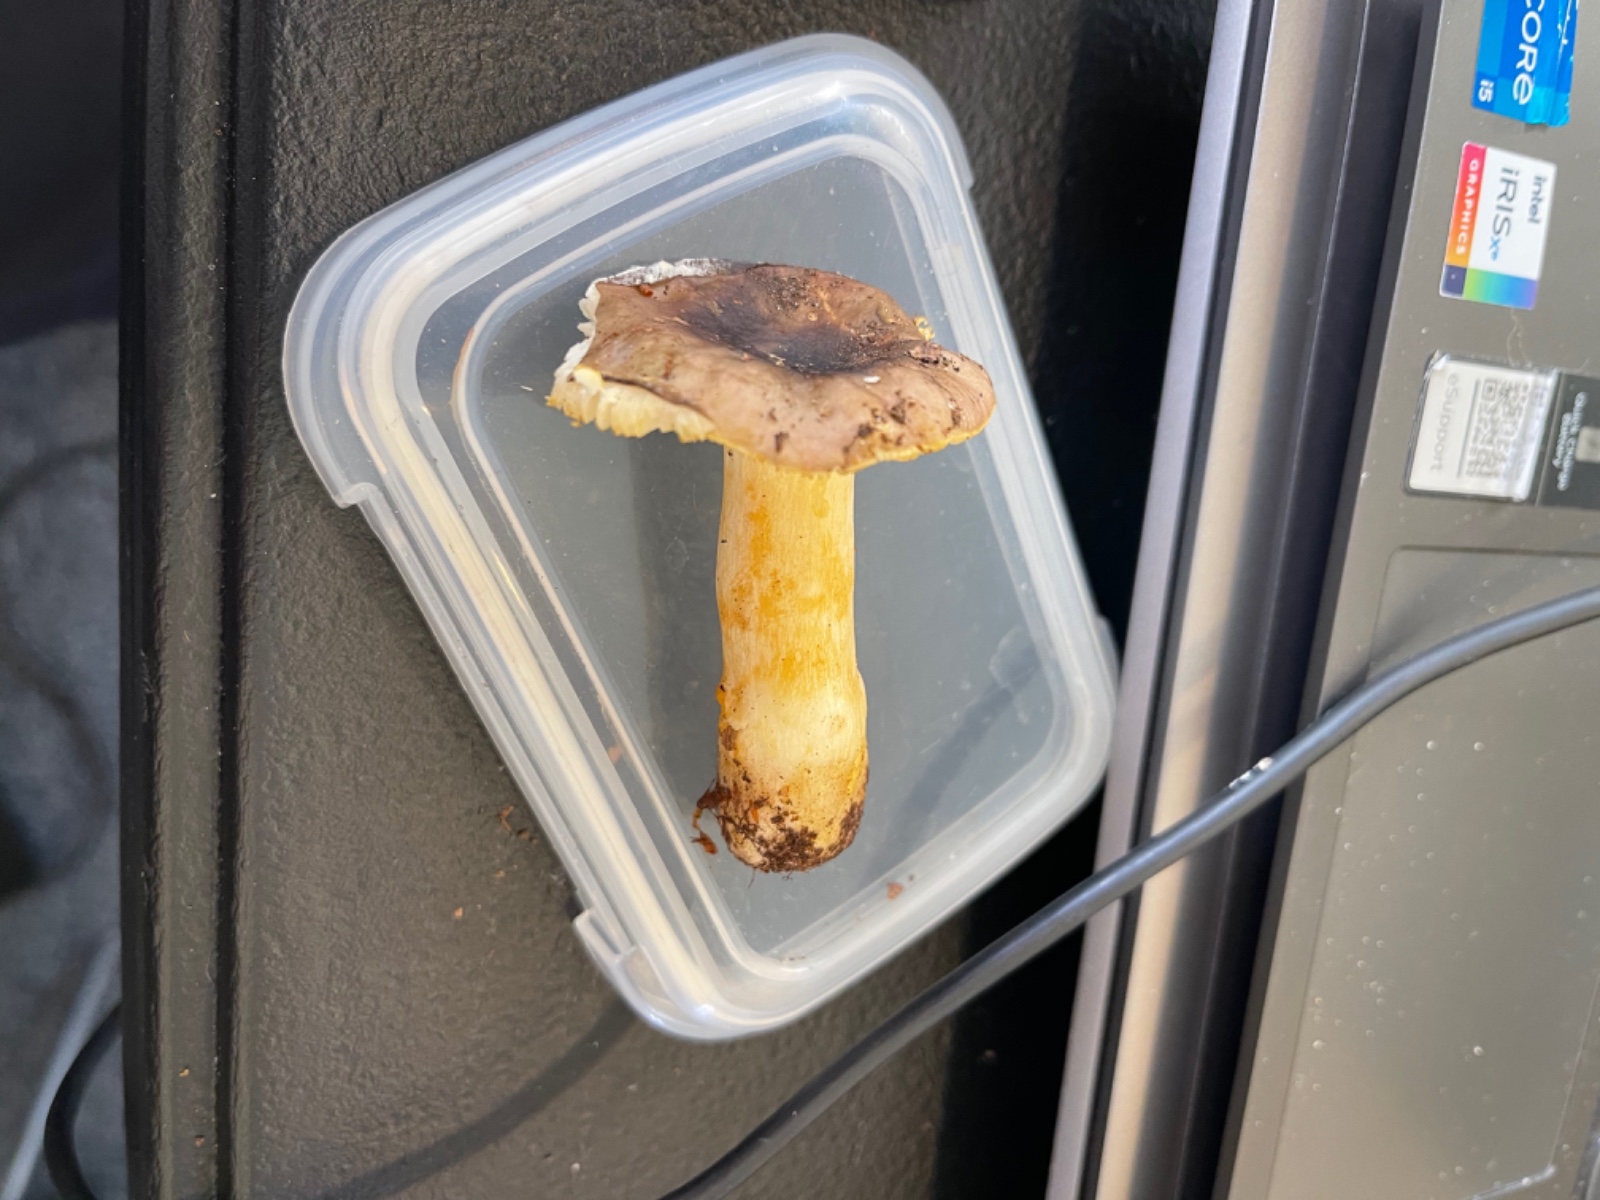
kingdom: Fungi
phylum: Basidiomycota
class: Agaricomycetes
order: Russulales
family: Russulaceae
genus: Russula
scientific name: Russula puellaris
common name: gulstokket skørhat
